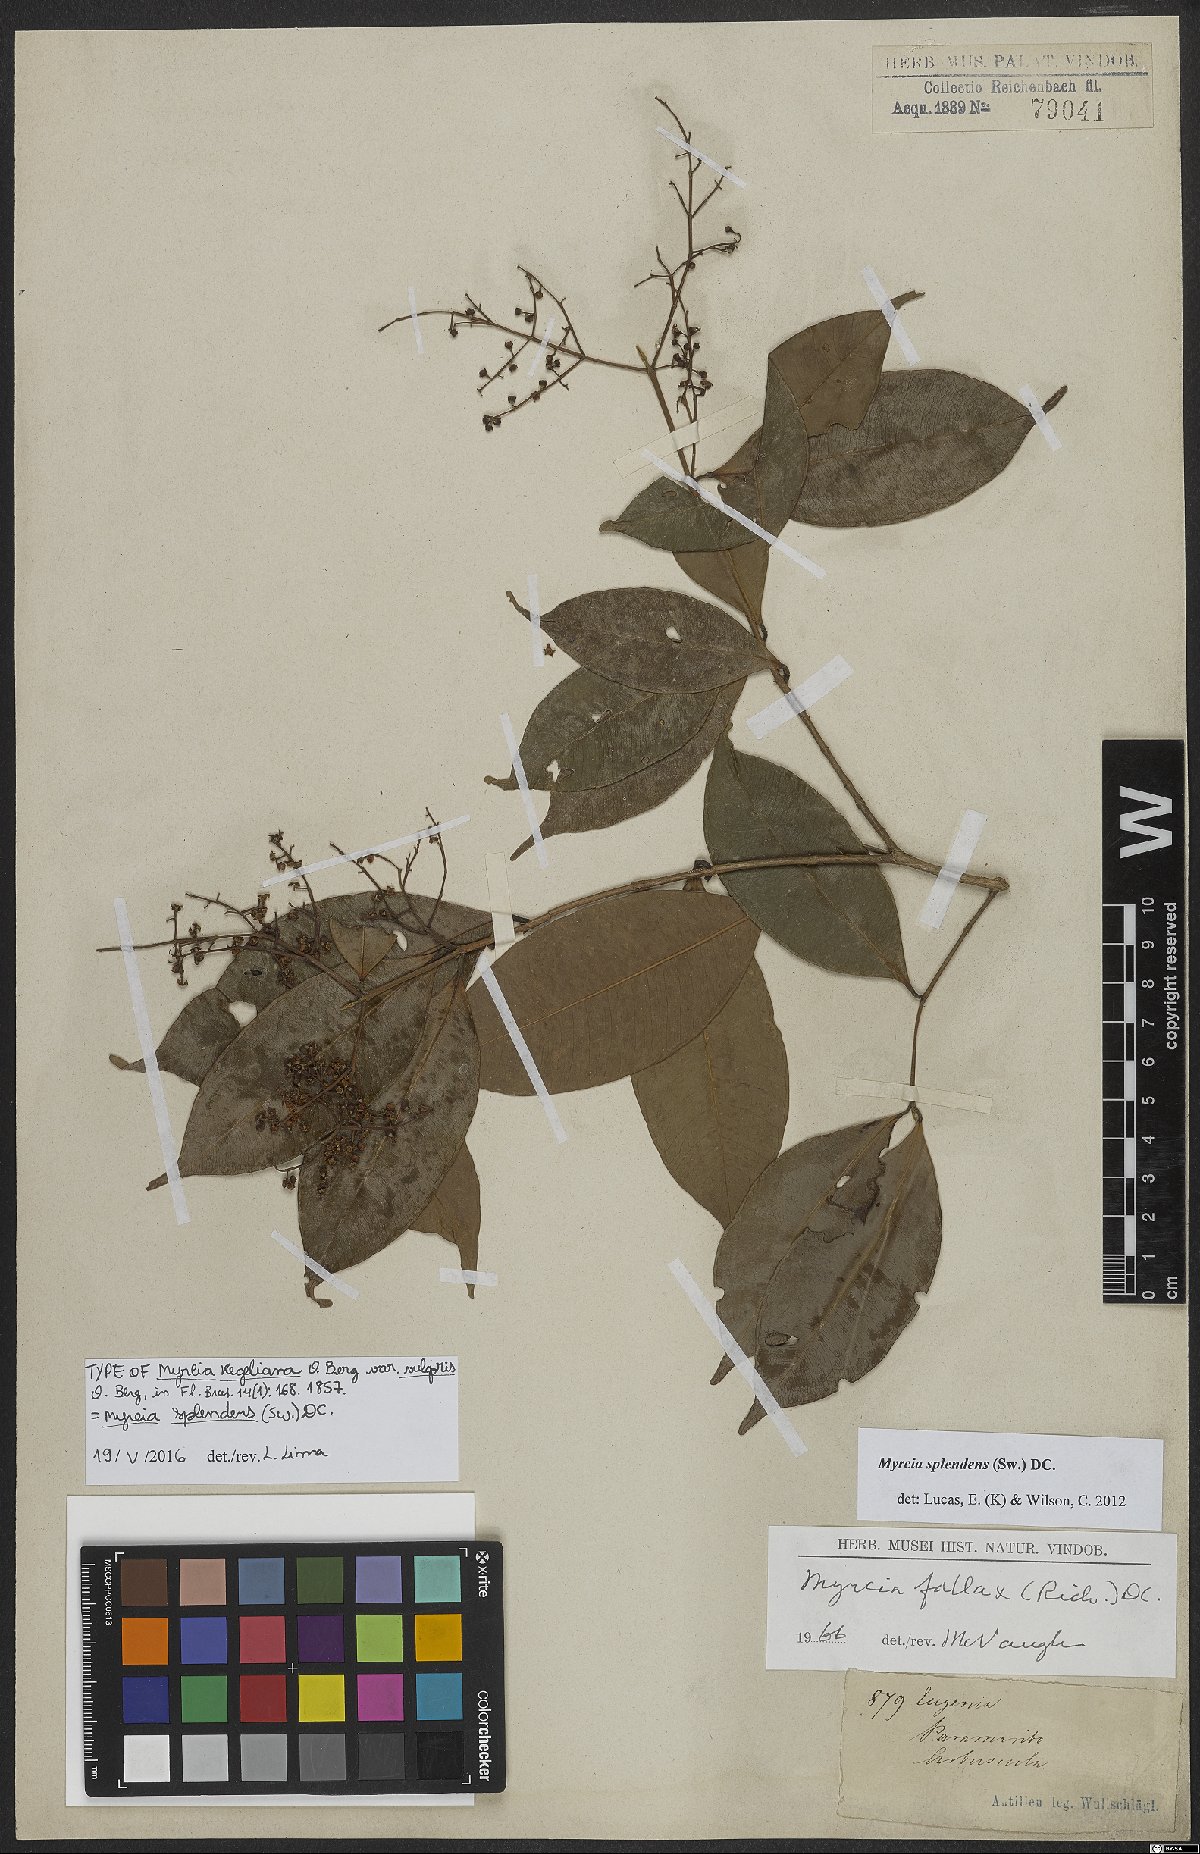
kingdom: Plantae
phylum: Tracheophyta
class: Magnoliopsida
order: Myrtales
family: Myrtaceae
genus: Myrcia
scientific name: Myrcia splendens
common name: Surinam cherry
